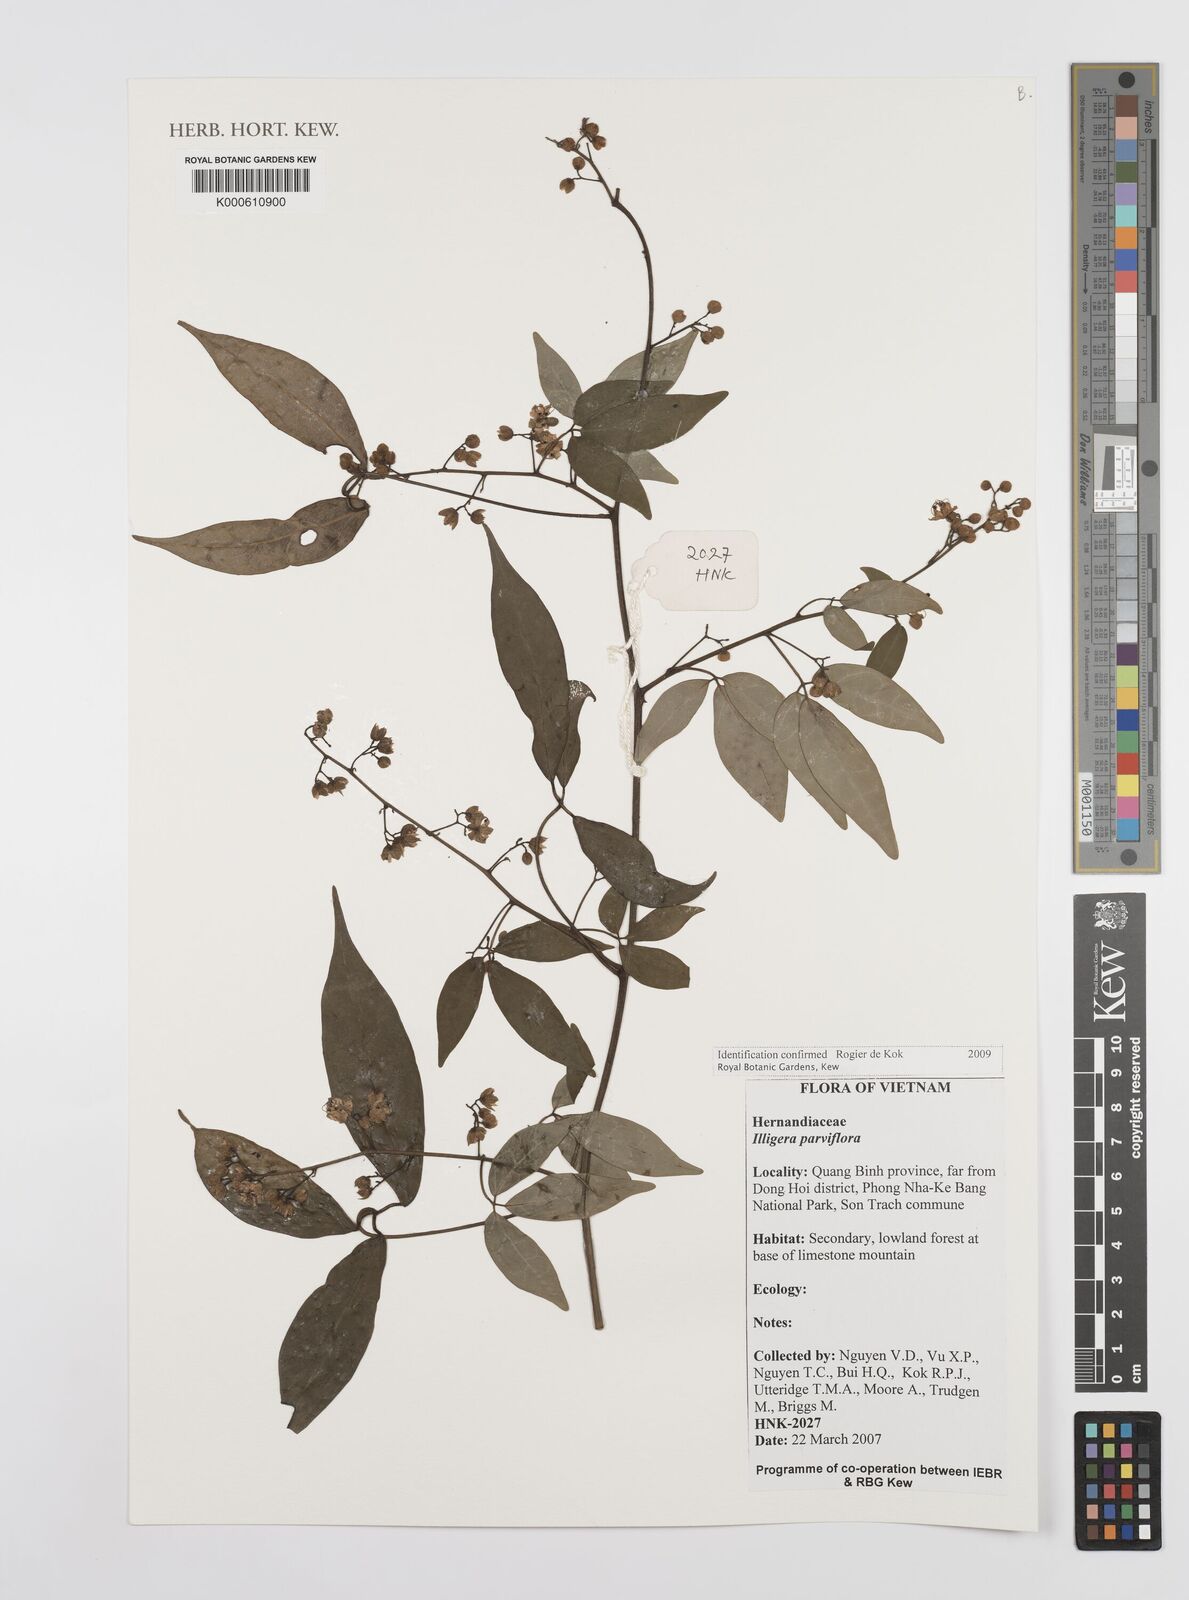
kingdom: Plantae
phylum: Tracheophyta
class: Magnoliopsida
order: Laurales
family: Hernandiaceae
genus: Illigera
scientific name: Illigera parviflora
